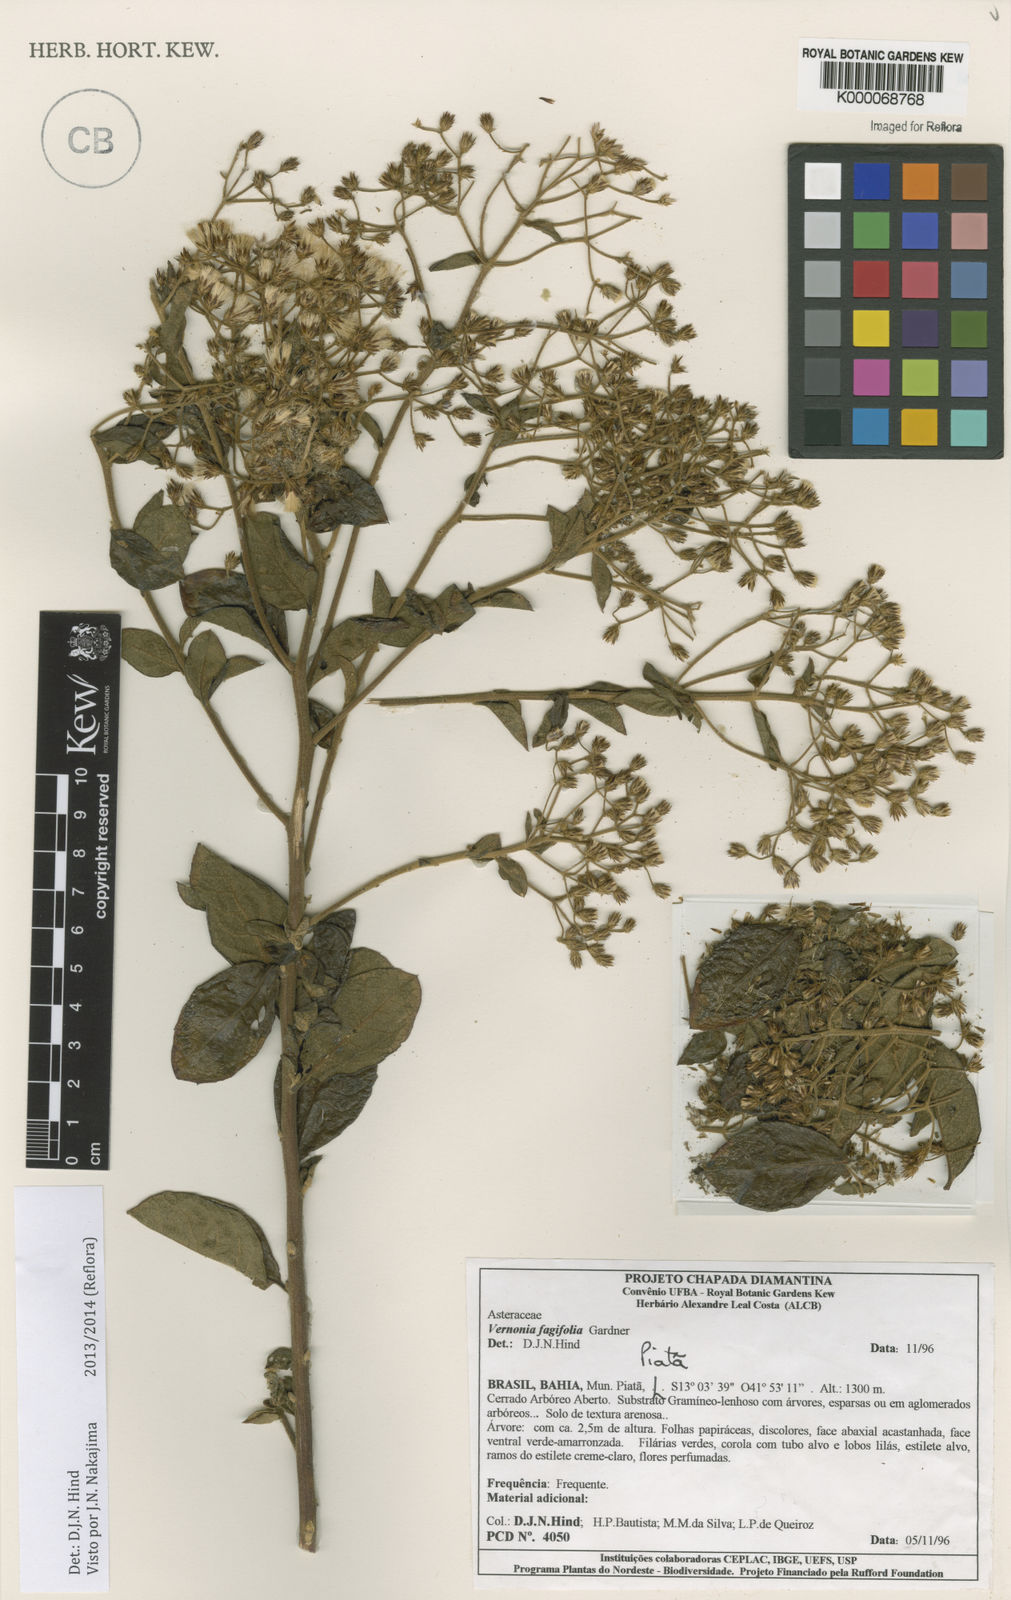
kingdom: Plantae
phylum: Tracheophyta
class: Magnoliopsida
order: Asterales
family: Asteraceae
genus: Vernonanthura
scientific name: Vernonanthura fagifolia
